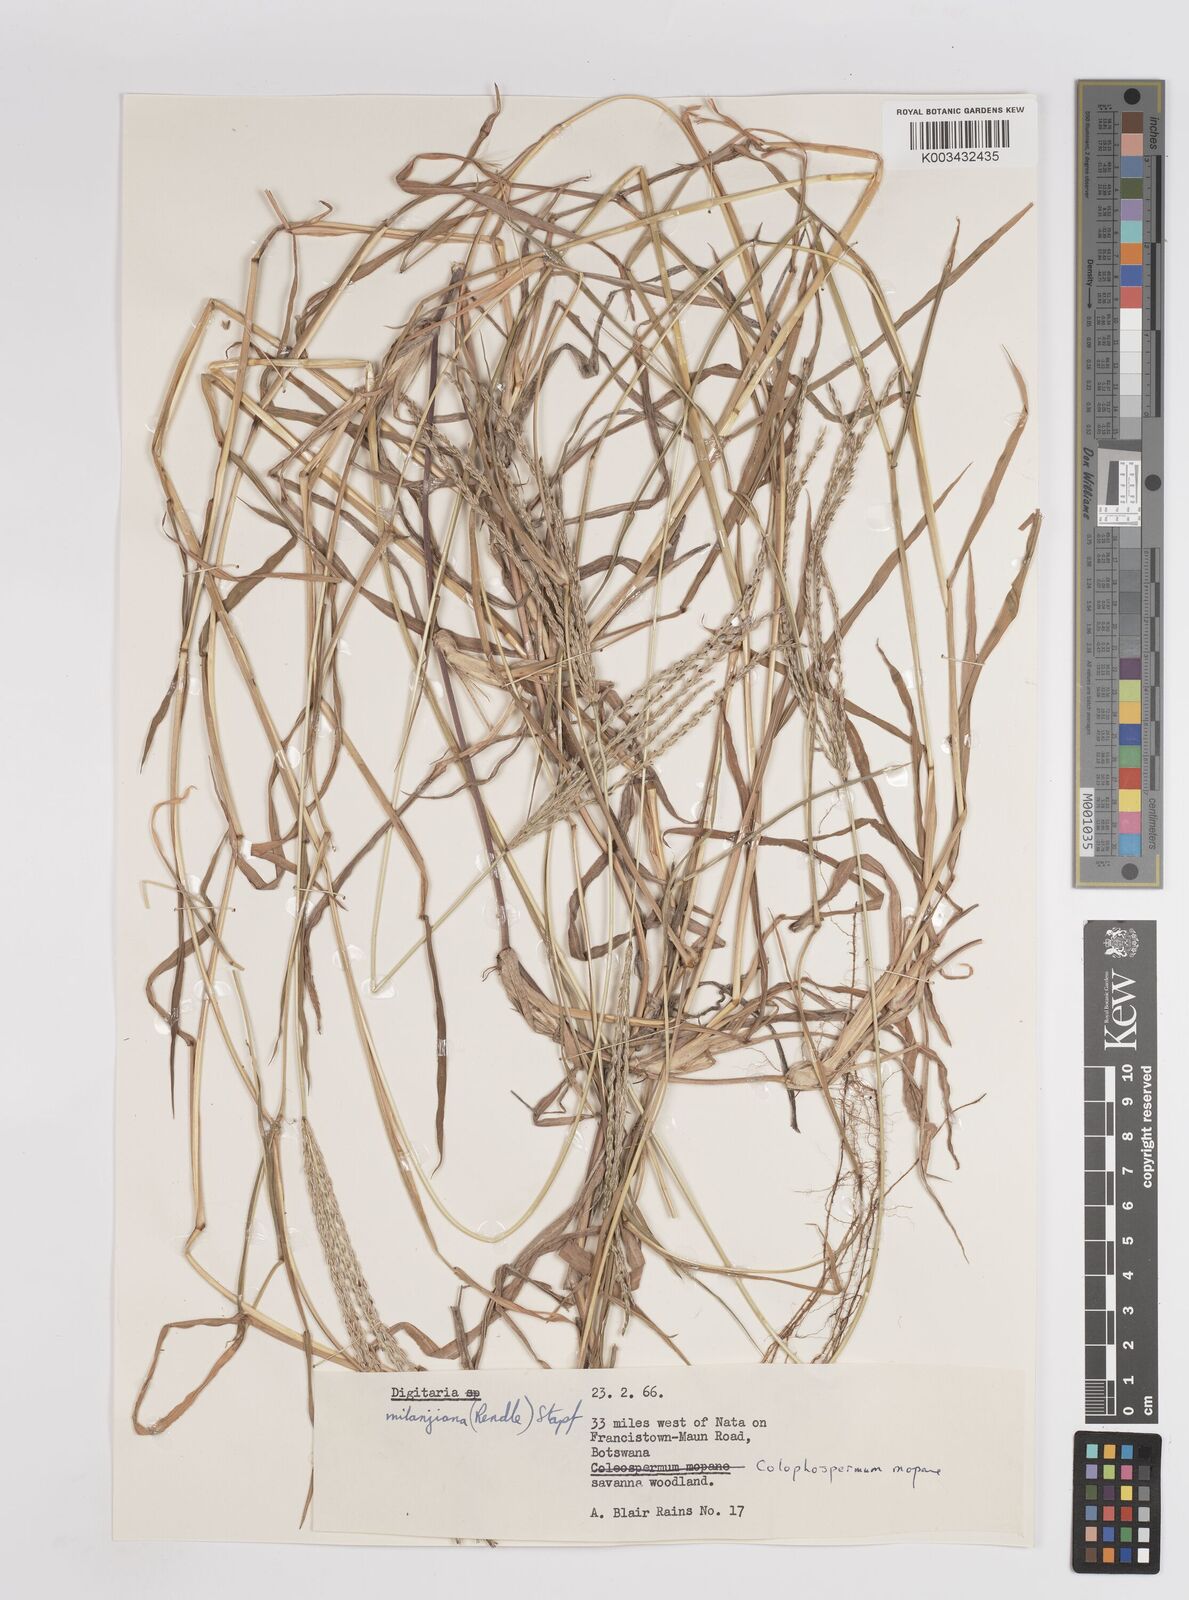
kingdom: Plantae
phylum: Tracheophyta
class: Liliopsida
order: Poales
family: Poaceae
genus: Digitaria
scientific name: Digitaria eriantha
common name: Digitgrass
